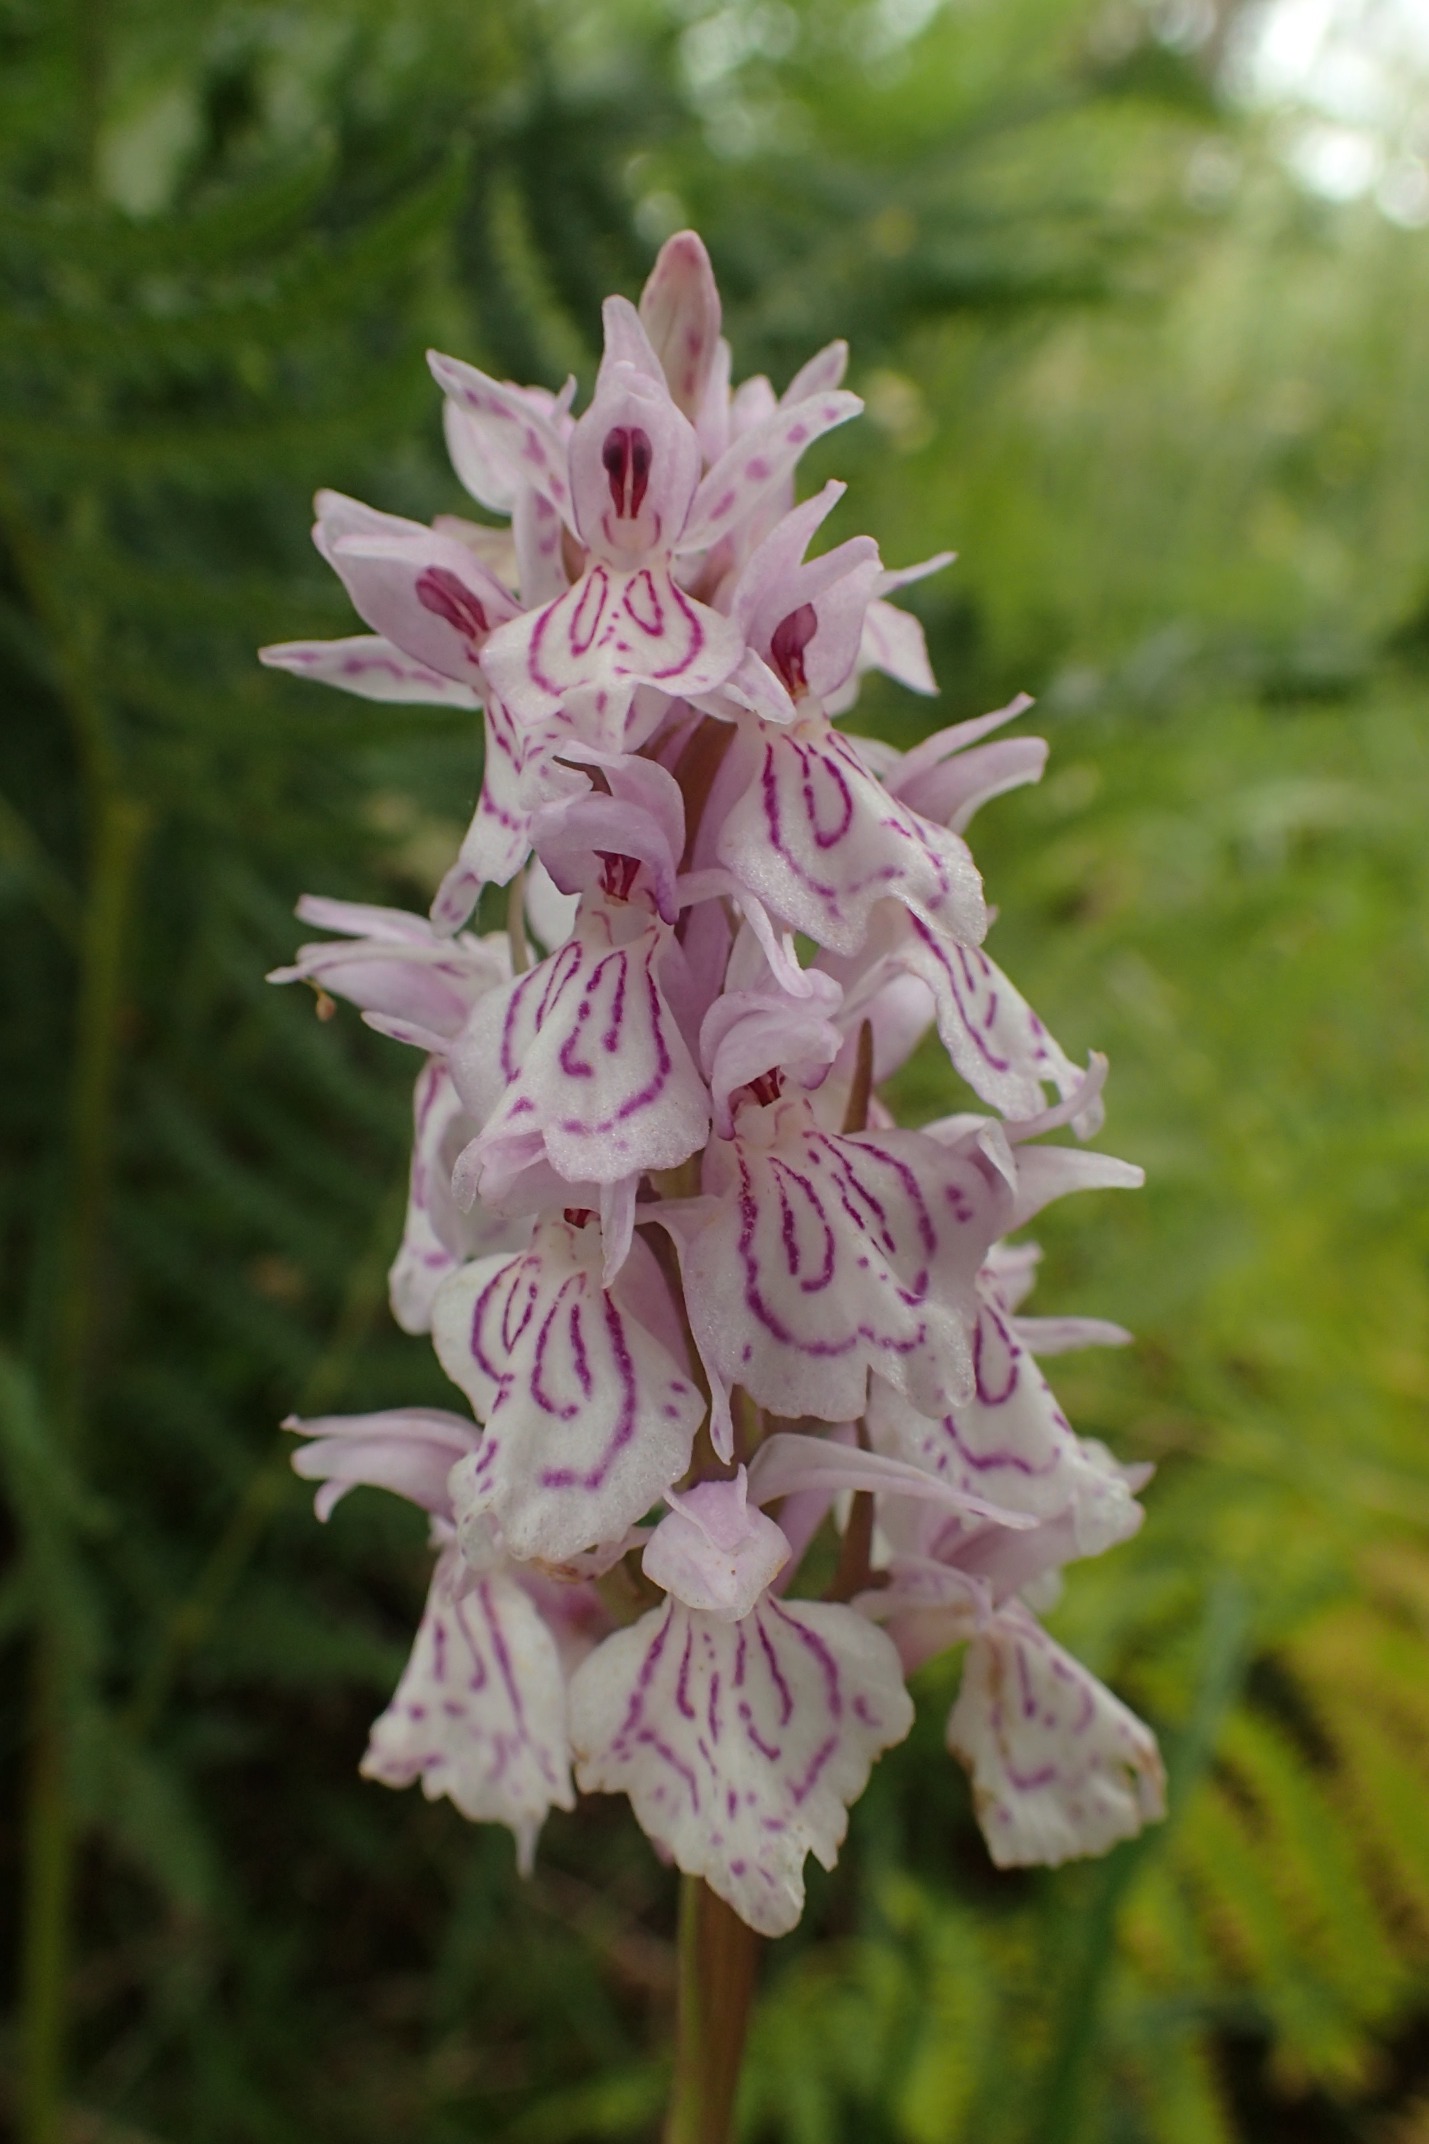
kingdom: Plantae
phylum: Tracheophyta
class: Liliopsida
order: Asparagales
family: Orchidaceae
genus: Dactylorhiza
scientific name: Dactylorhiza maculata
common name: Plettet gøgeurt
